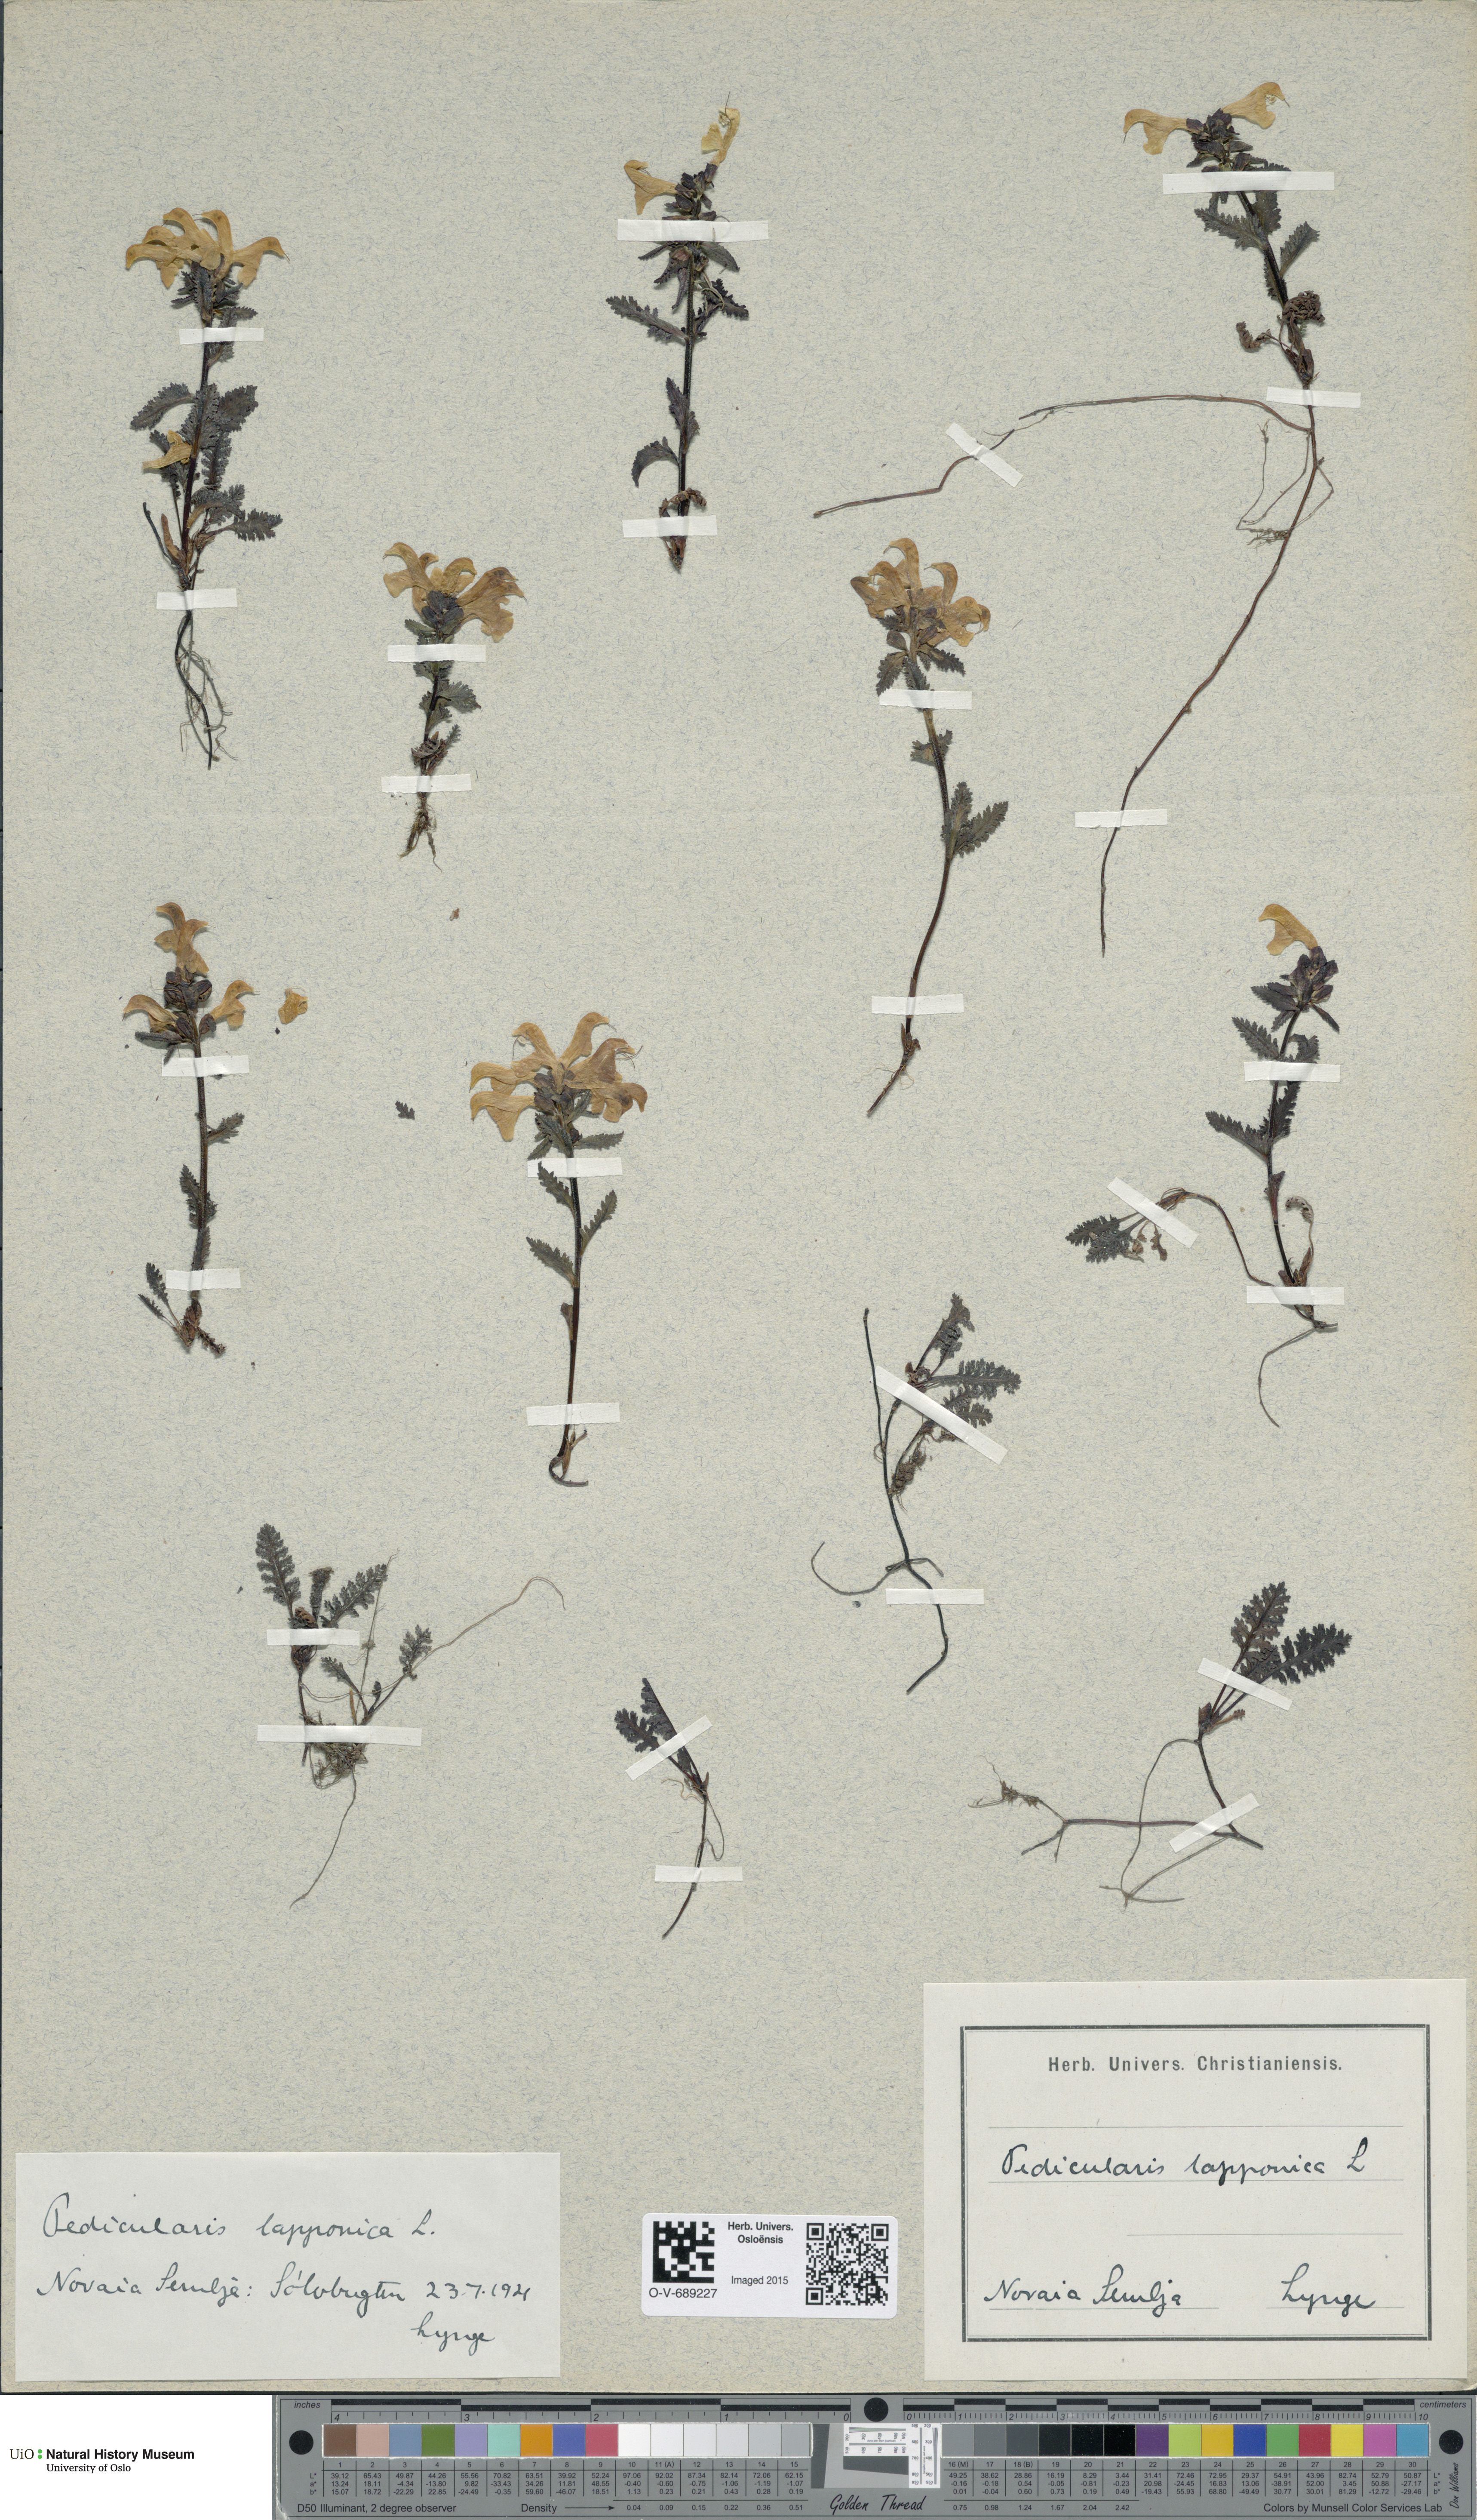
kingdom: Plantae
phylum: Tracheophyta
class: Magnoliopsida
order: Lamiales
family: Orobanchaceae
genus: Pedicularis
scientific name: Pedicularis lapponica
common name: Lapland lousewort
